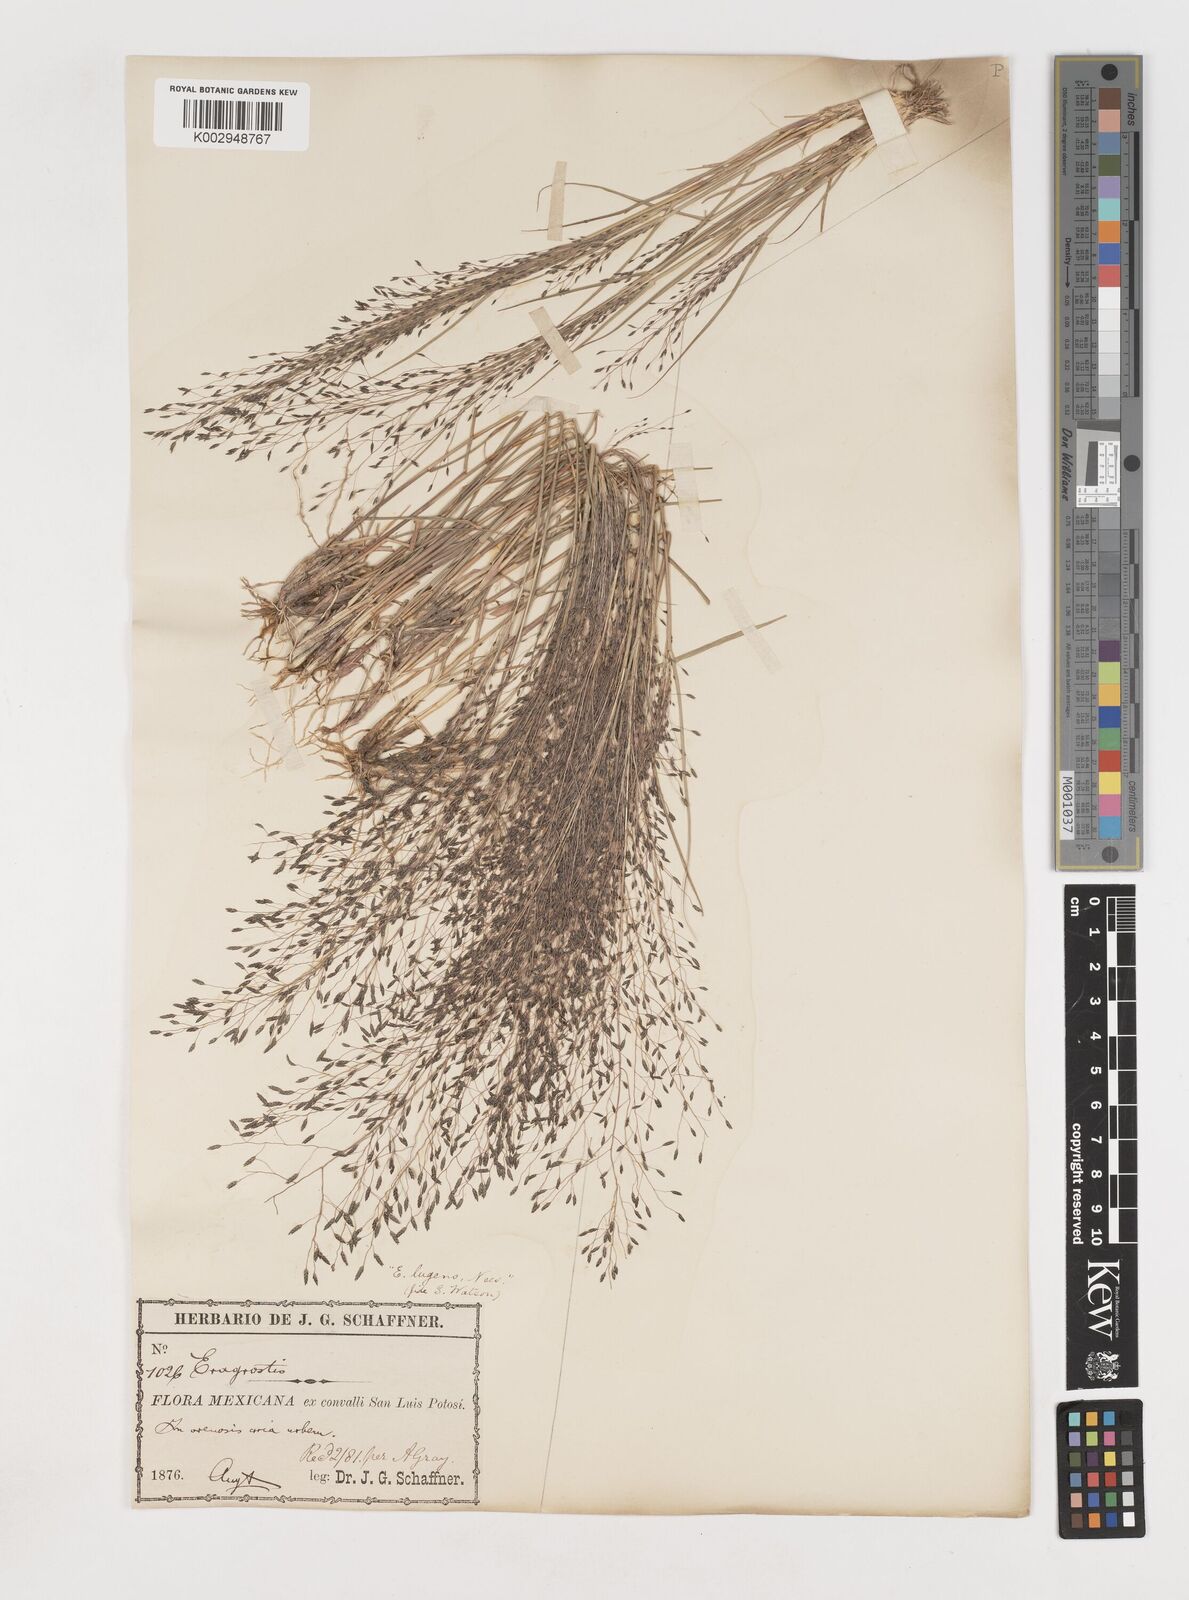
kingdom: Plantae
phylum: Tracheophyta
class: Liliopsida
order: Poales
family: Poaceae
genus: Eragrostis
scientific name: Eragrostis
